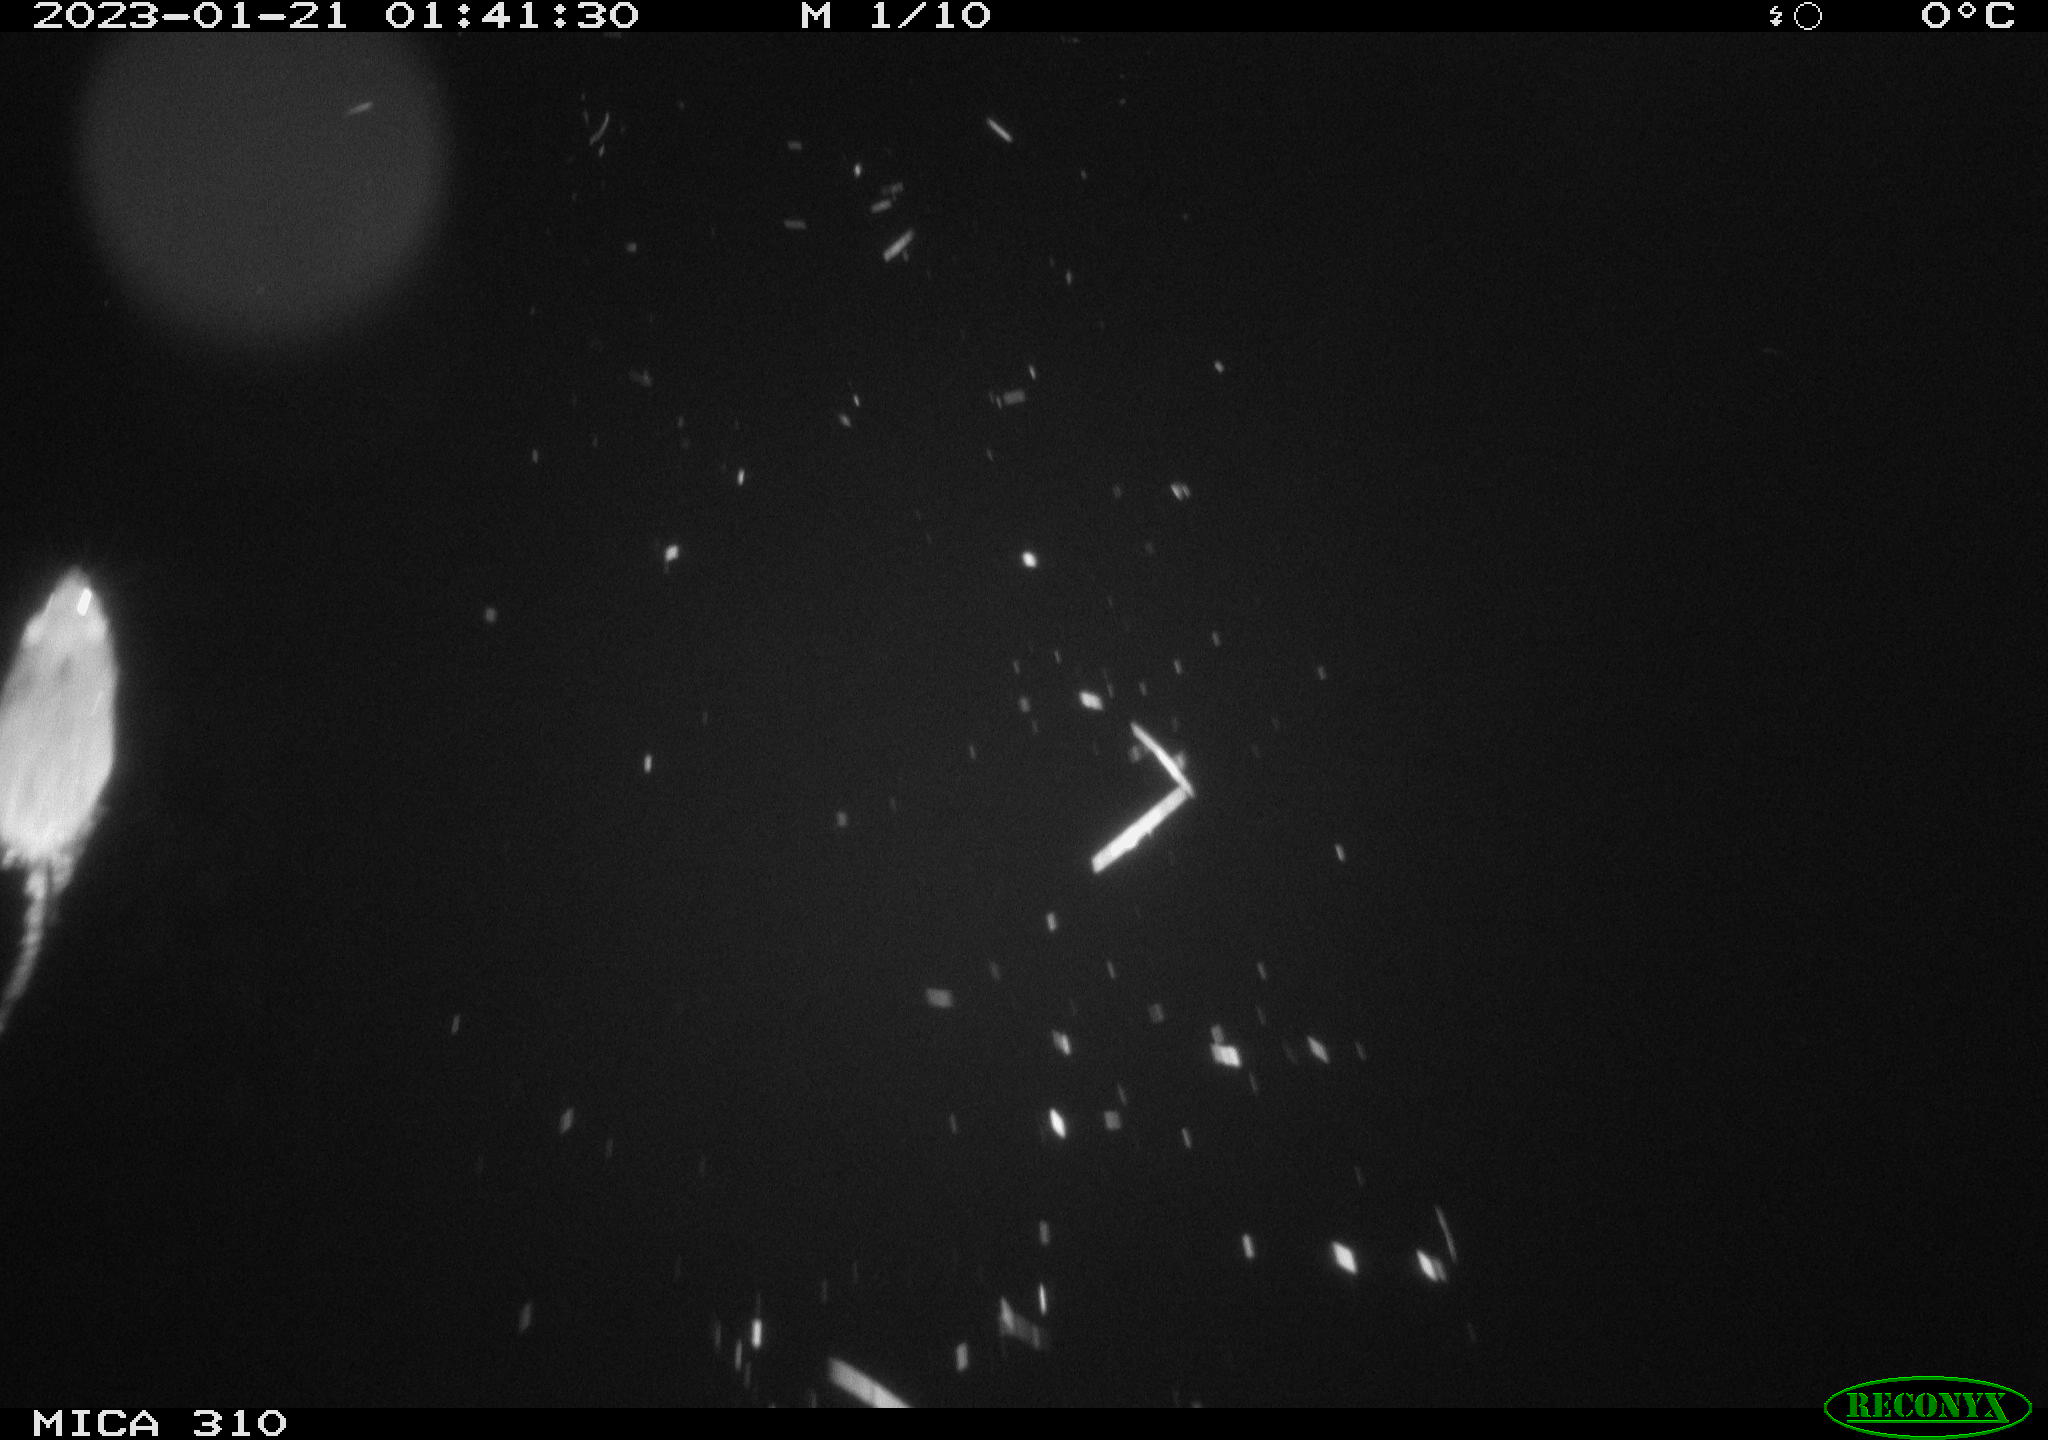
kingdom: Animalia
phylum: Chordata
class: Mammalia
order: Rodentia
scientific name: Rodentia
